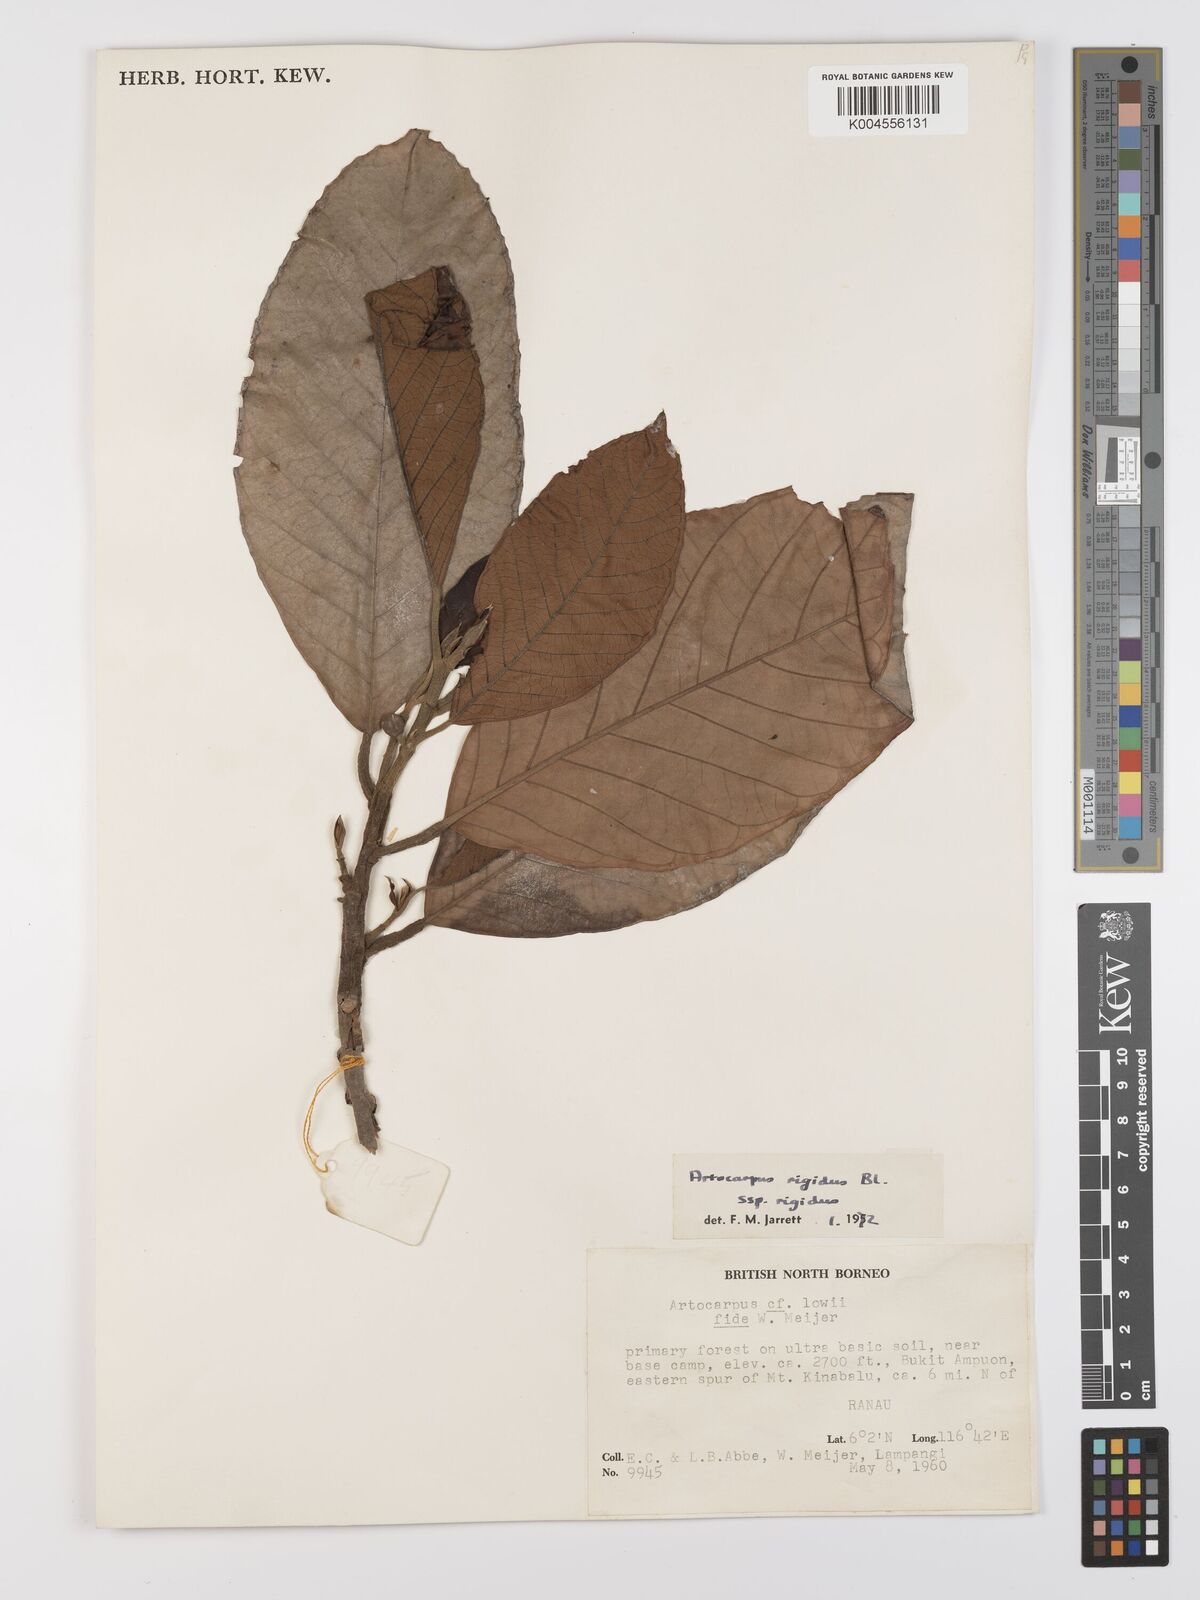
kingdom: Plantae
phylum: Tracheophyta
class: Magnoliopsida
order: Rosales
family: Moraceae
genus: Artocarpus
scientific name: Artocarpus
